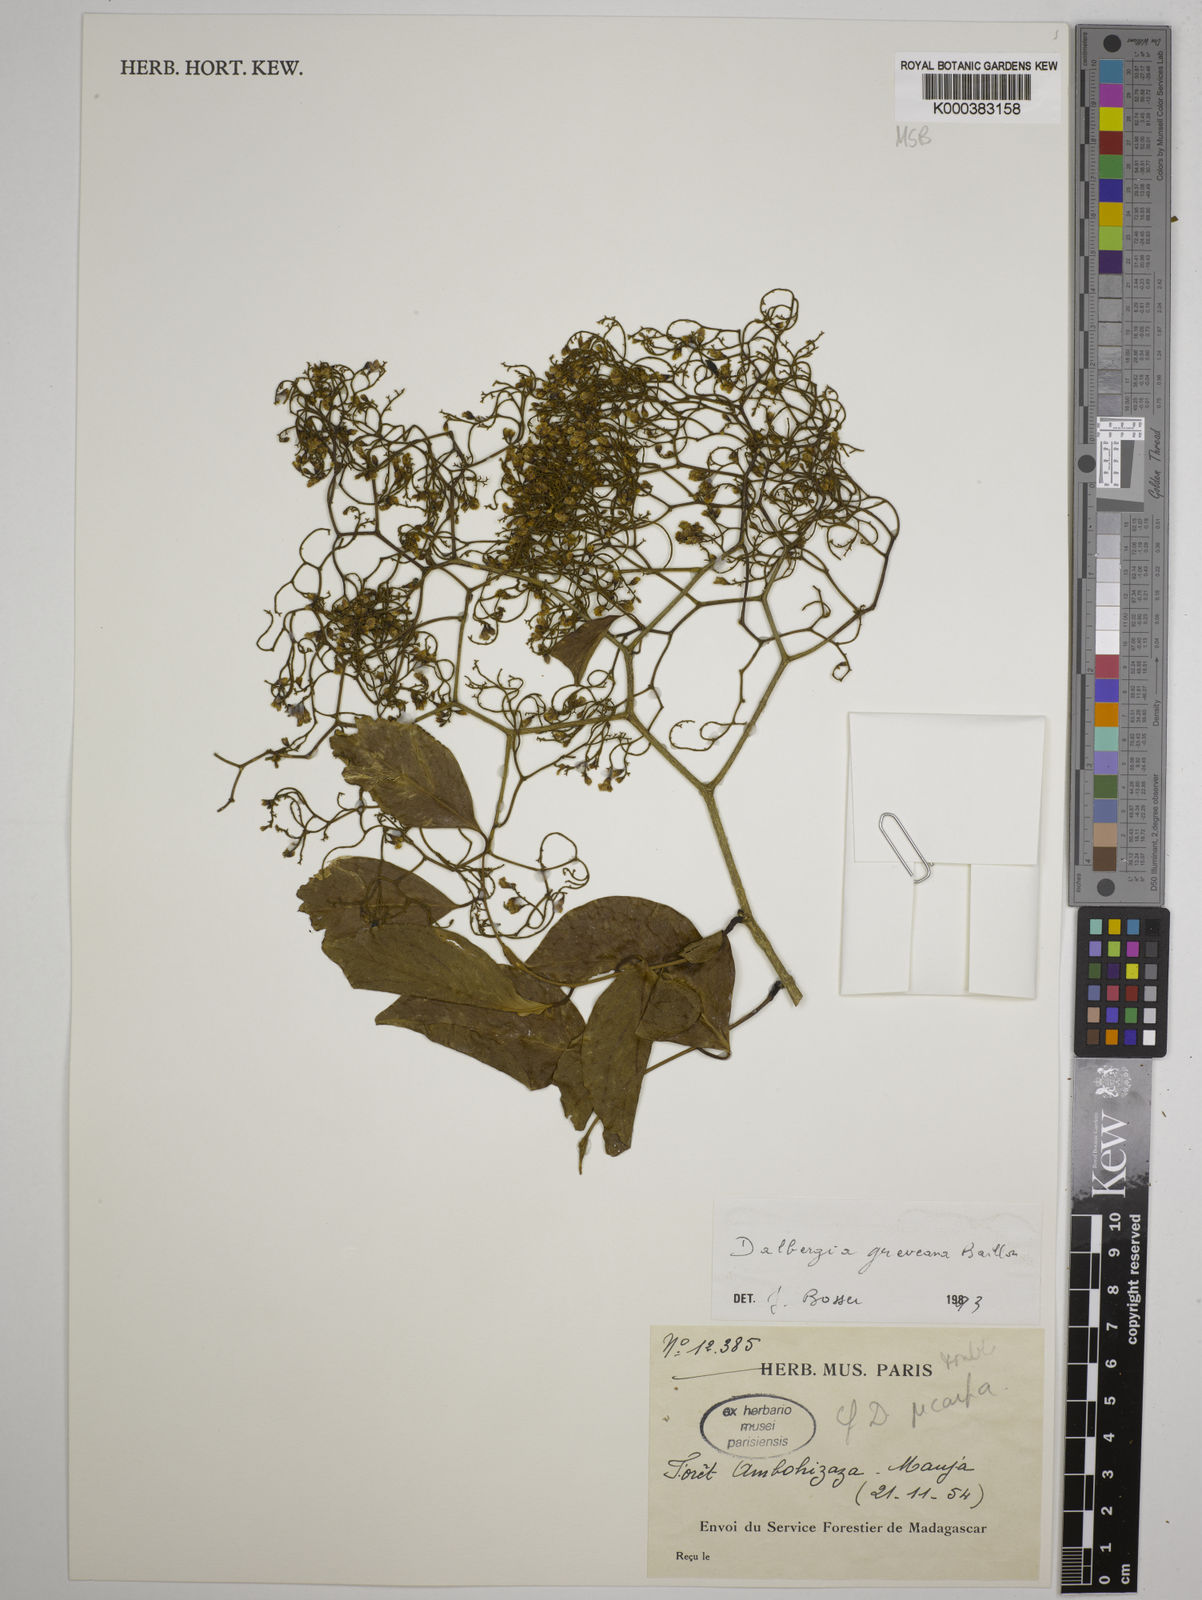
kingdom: Plantae
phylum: Tracheophyta
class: Magnoliopsida
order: Fabales
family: Fabaceae
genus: Dalbergia
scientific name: Dalbergia greveana
